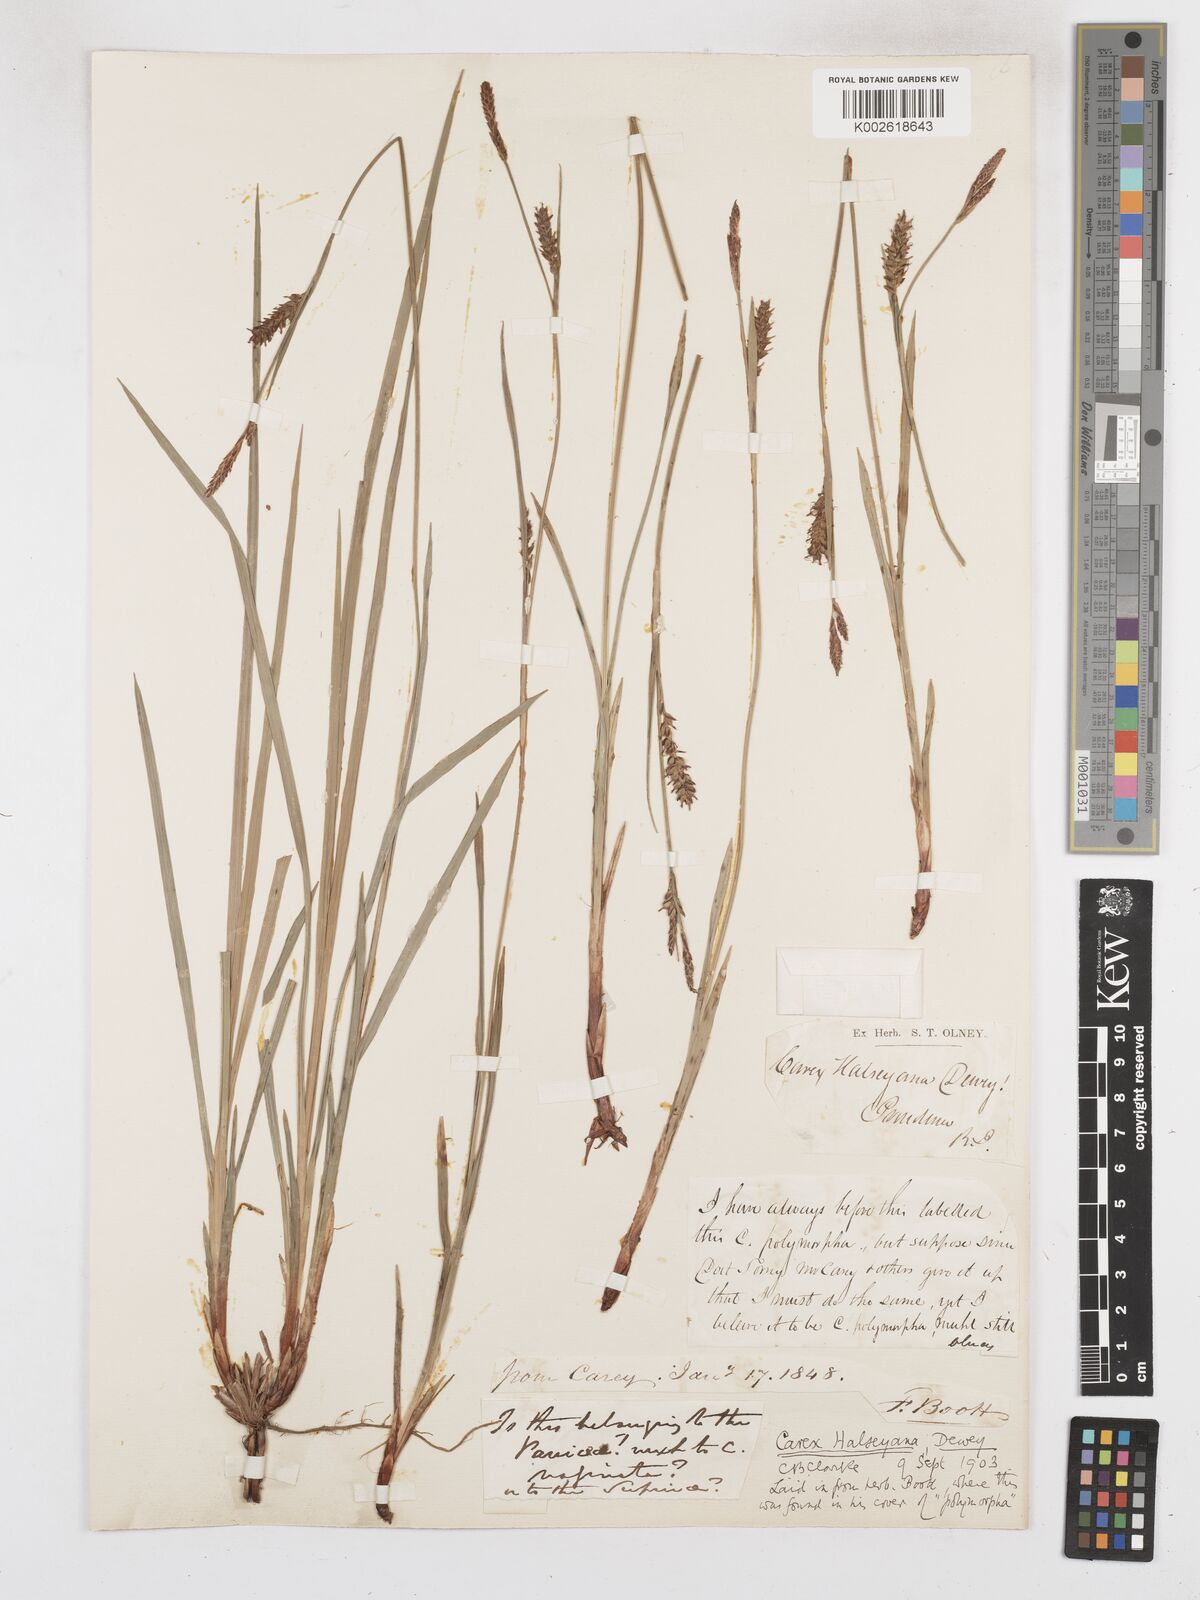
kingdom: Plantae
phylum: Tracheophyta
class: Liliopsida
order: Poales
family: Cyperaceae
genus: Carex
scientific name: Carex polymorpha
